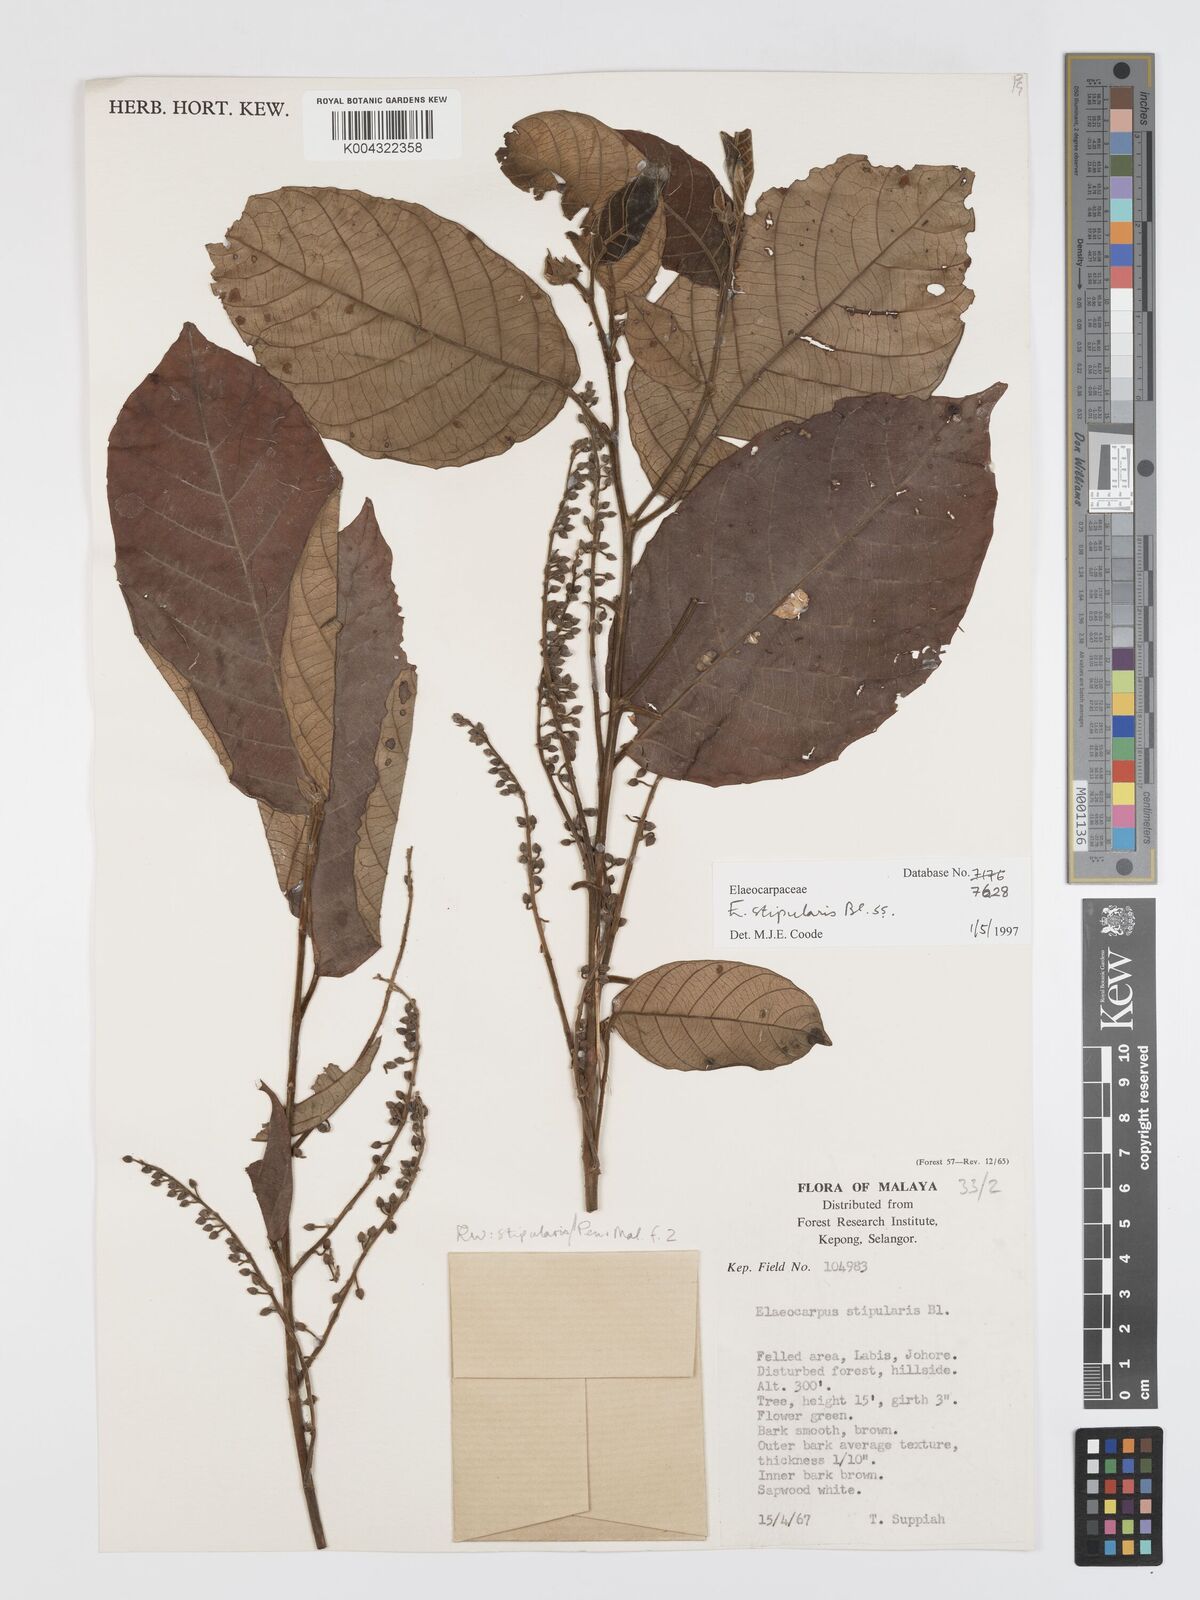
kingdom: Plantae
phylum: Tracheophyta
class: Magnoliopsida
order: Oxalidales
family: Elaeocarpaceae
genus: Elaeocarpus
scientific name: Elaeocarpus stipularis
